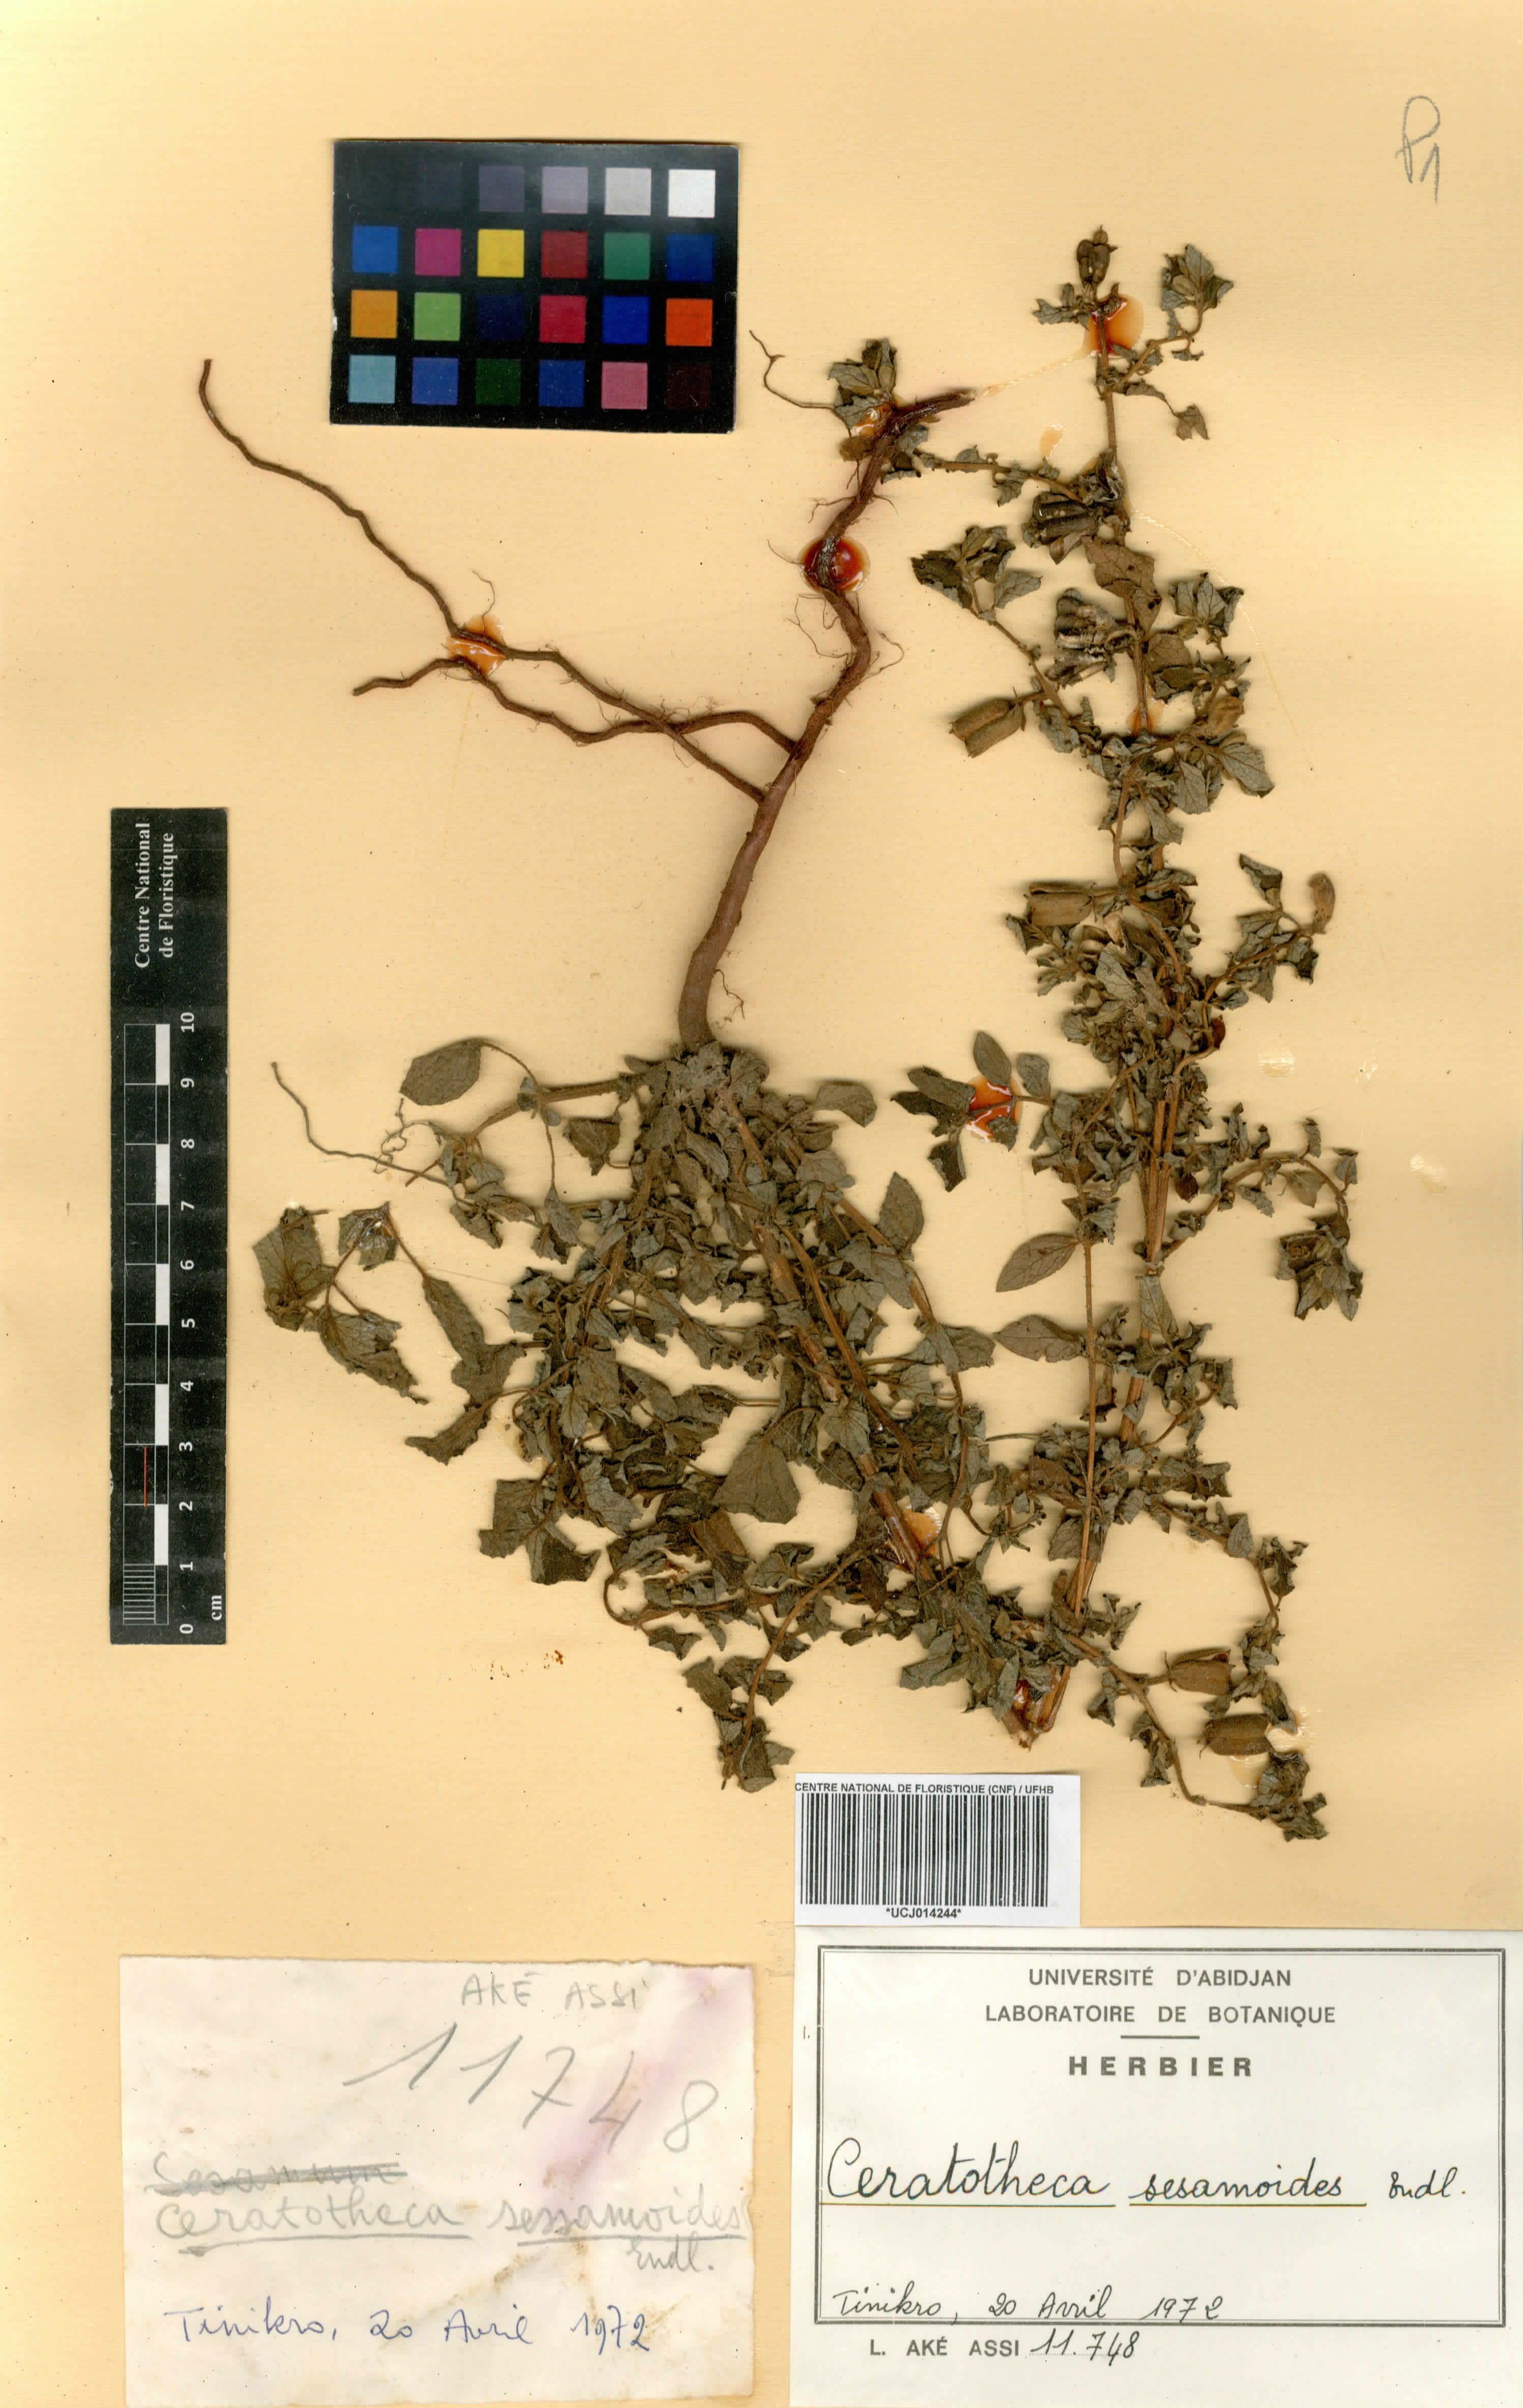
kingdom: Plantae
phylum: Tracheophyta
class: Magnoliopsida
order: Lamiales
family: Pedaliaceae
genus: Sesamum
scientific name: Sesamum sesamoides
